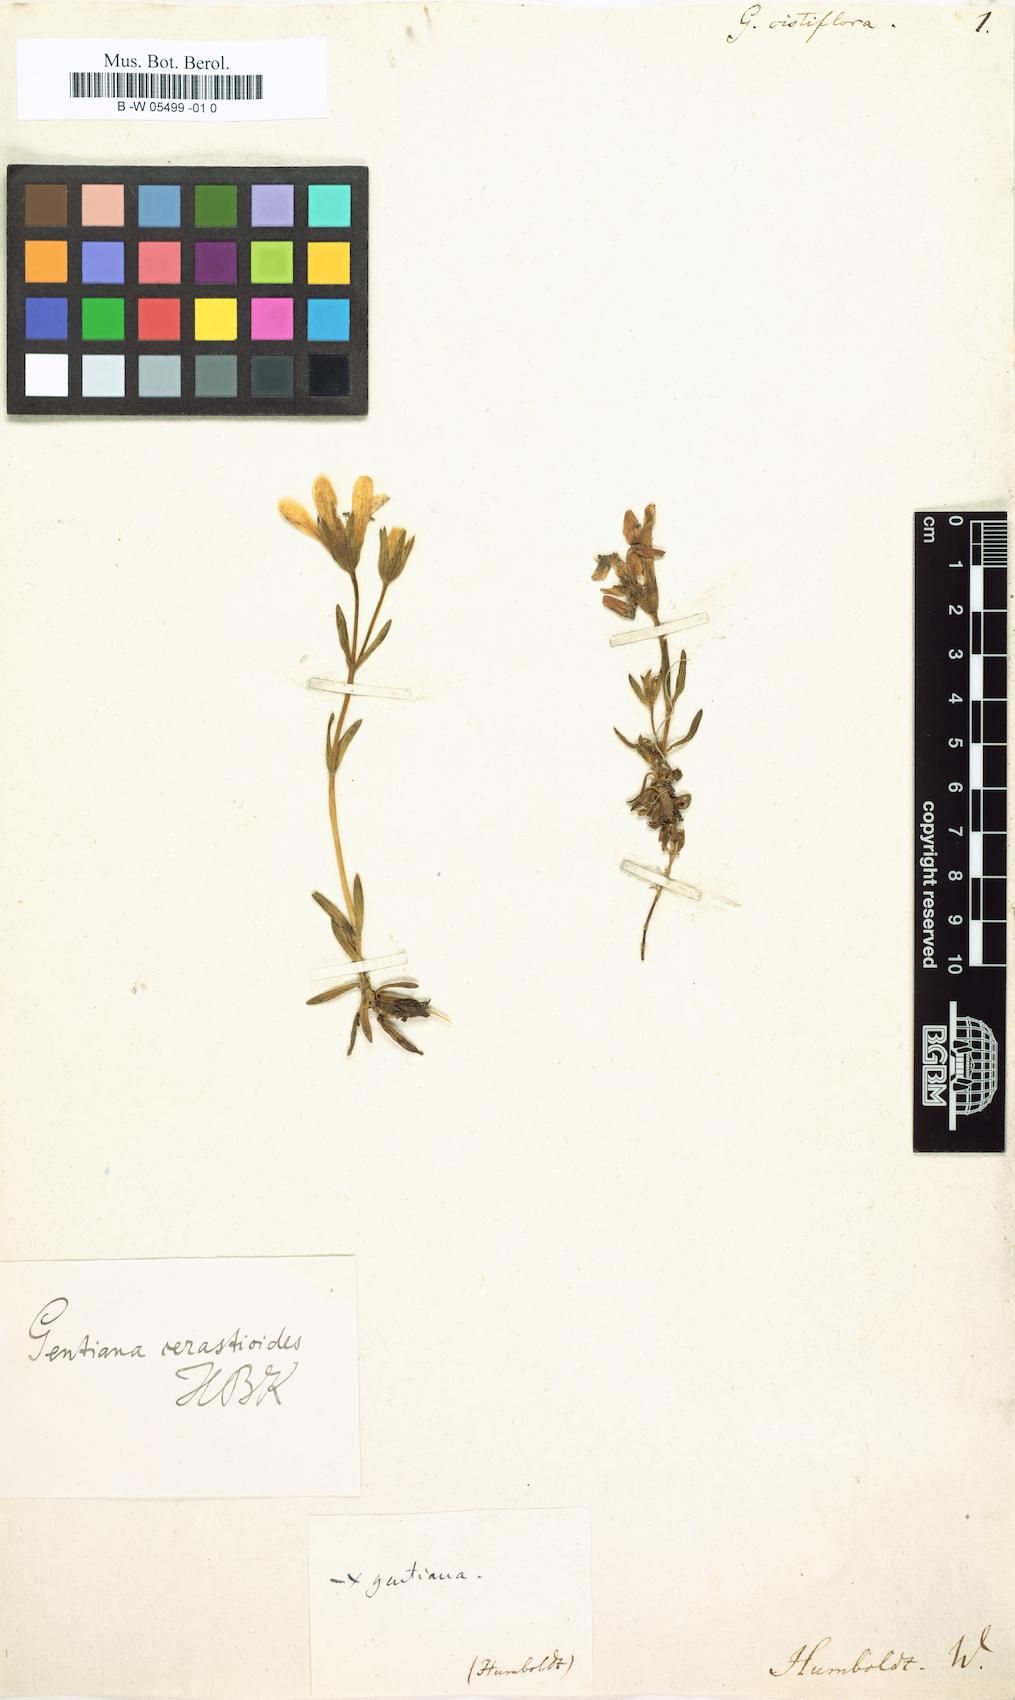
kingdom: Plantae
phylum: Tracheophyta
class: Magnoliopsida
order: Gentianales
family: Gentianaceae
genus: Gentianella
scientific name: Gentianella cerastioides
